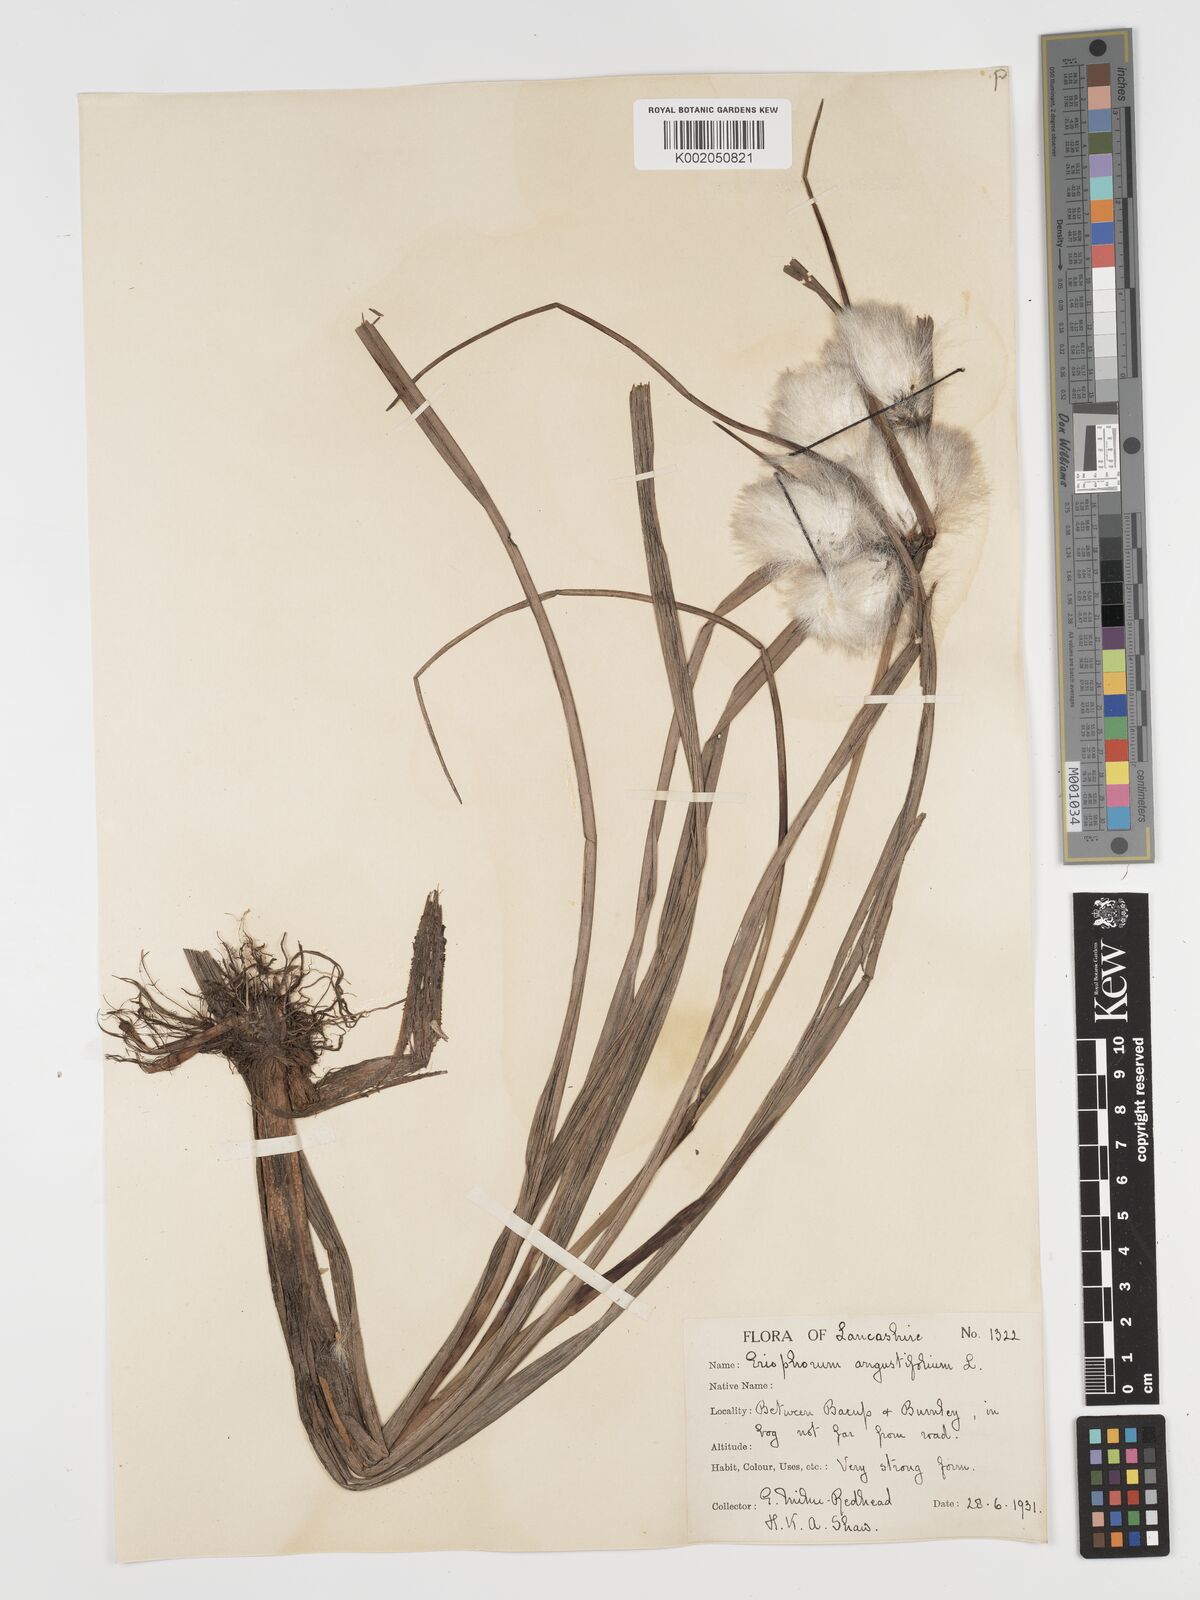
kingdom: Plantae
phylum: Tracheophyta
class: Liliopsida
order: Poales
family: Cyperaceae
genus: Eriophorum
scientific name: Eriophorum angustifolium
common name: Common cottongrass
